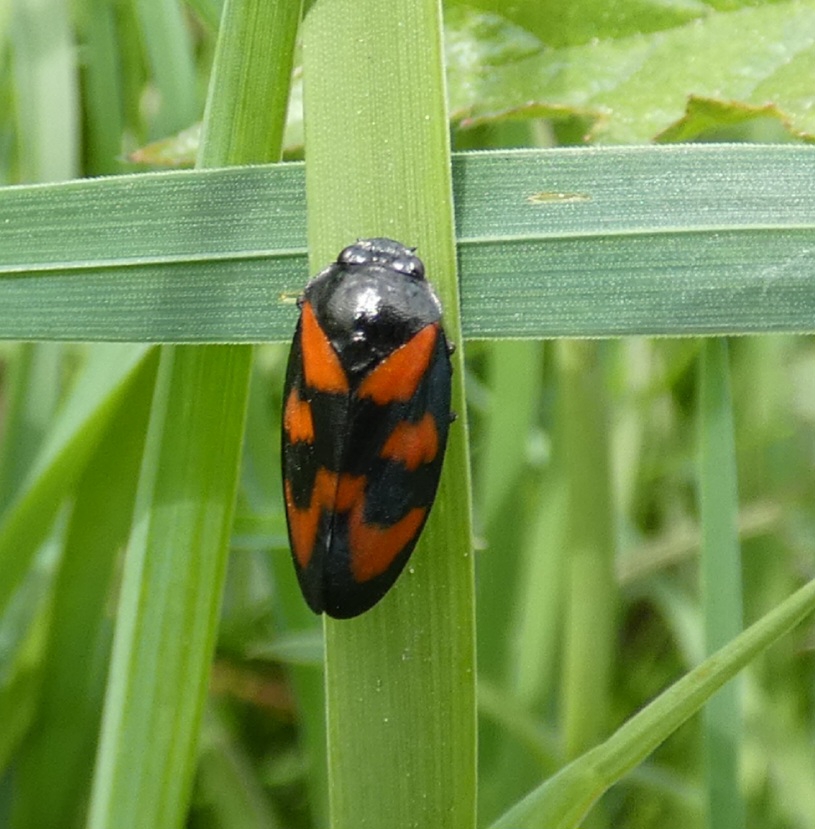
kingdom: Animalia
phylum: Arthropoda
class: Insecta
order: Hemiptera
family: Cercopidae
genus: Cercopis
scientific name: Cercopis vulnerata
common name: Blodcikade
